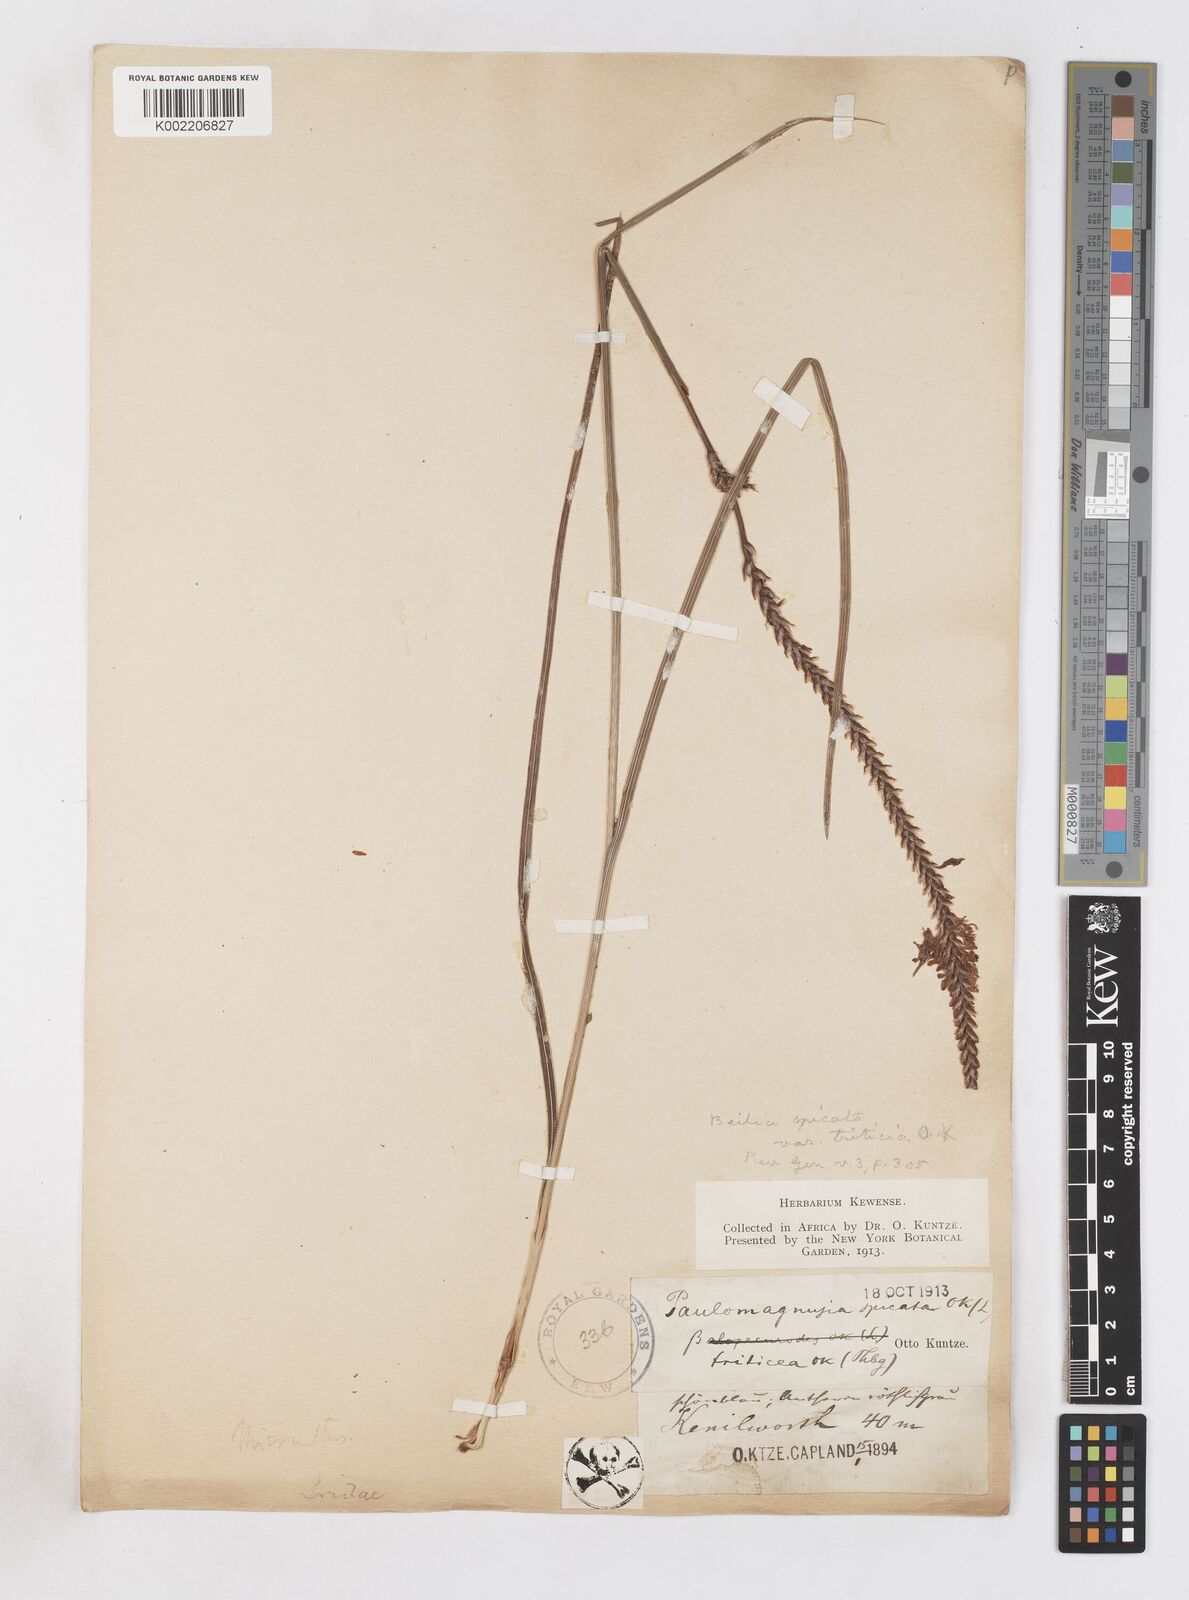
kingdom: Plantae
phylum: Tracheophyta
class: Liliopsida
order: Asparagales
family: Iridaceae
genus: Micranthus
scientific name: Micranthus alopecuroides
